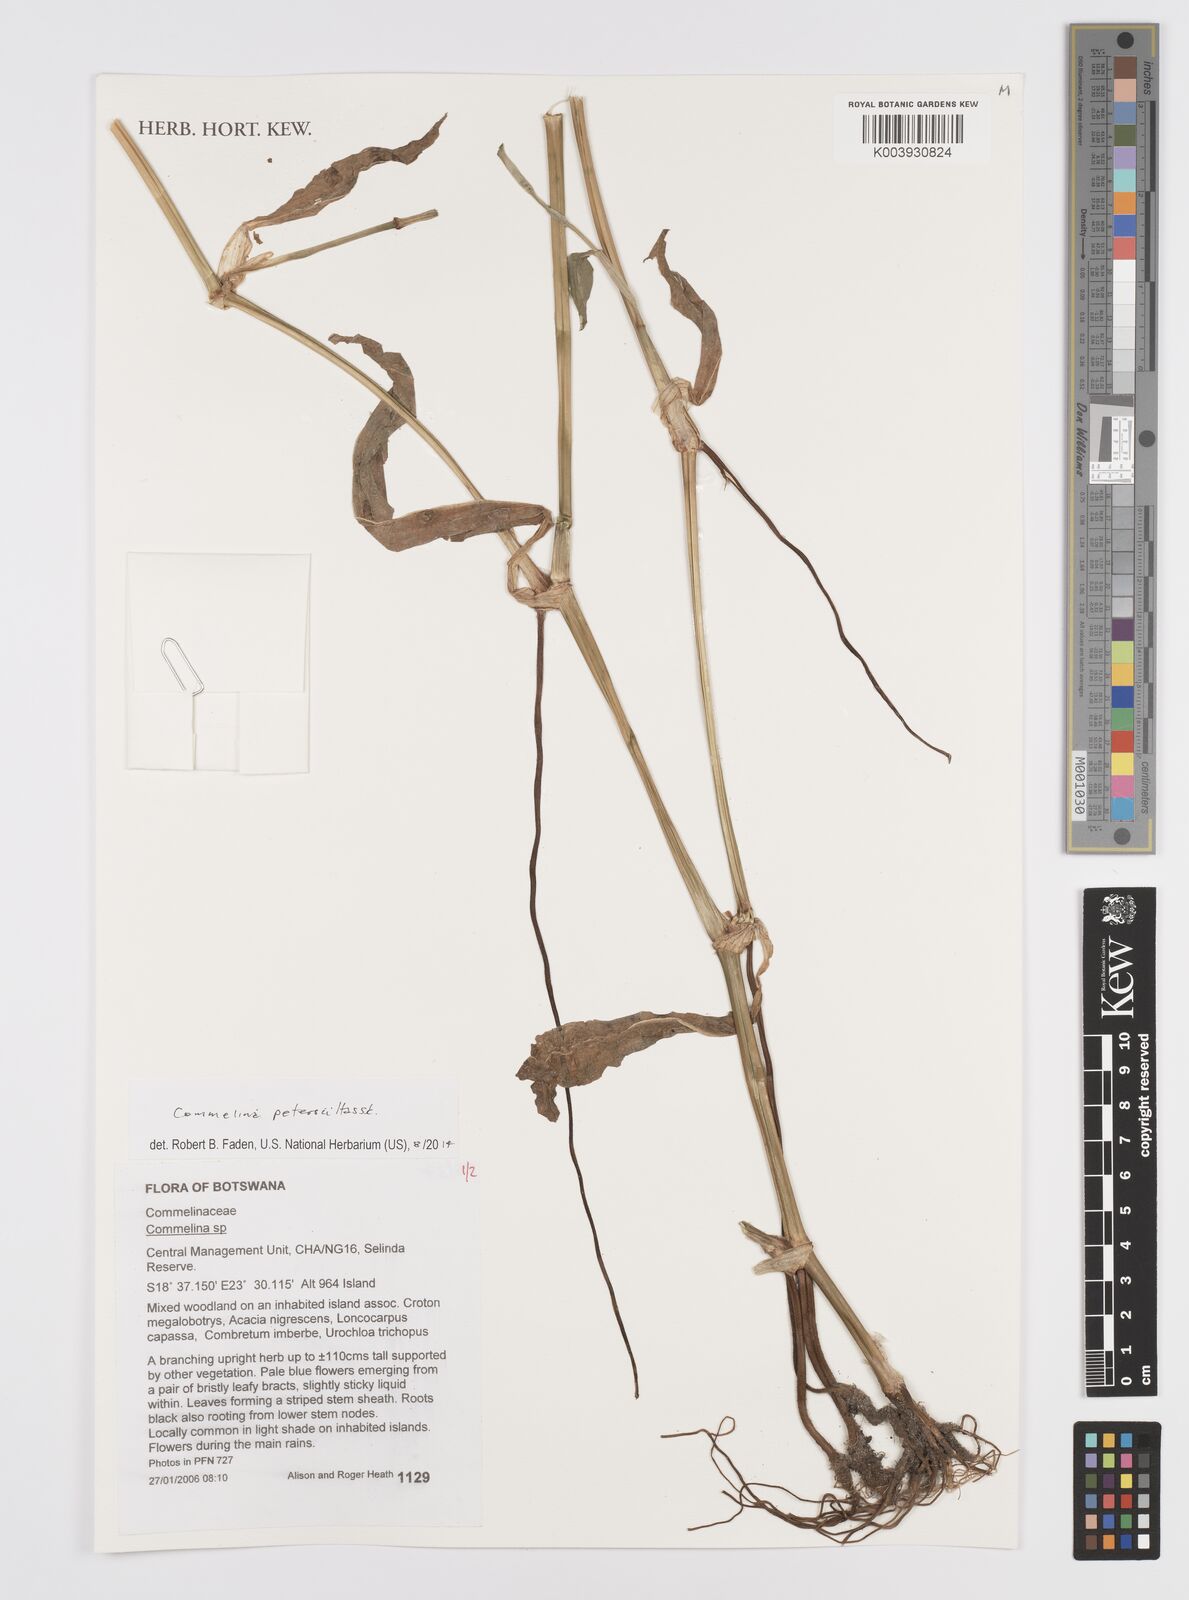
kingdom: Plantae
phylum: Tracheophyta
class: Liliopsida
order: Commelinales
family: Commelinaceae
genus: Commelina
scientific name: Commelina petersii
